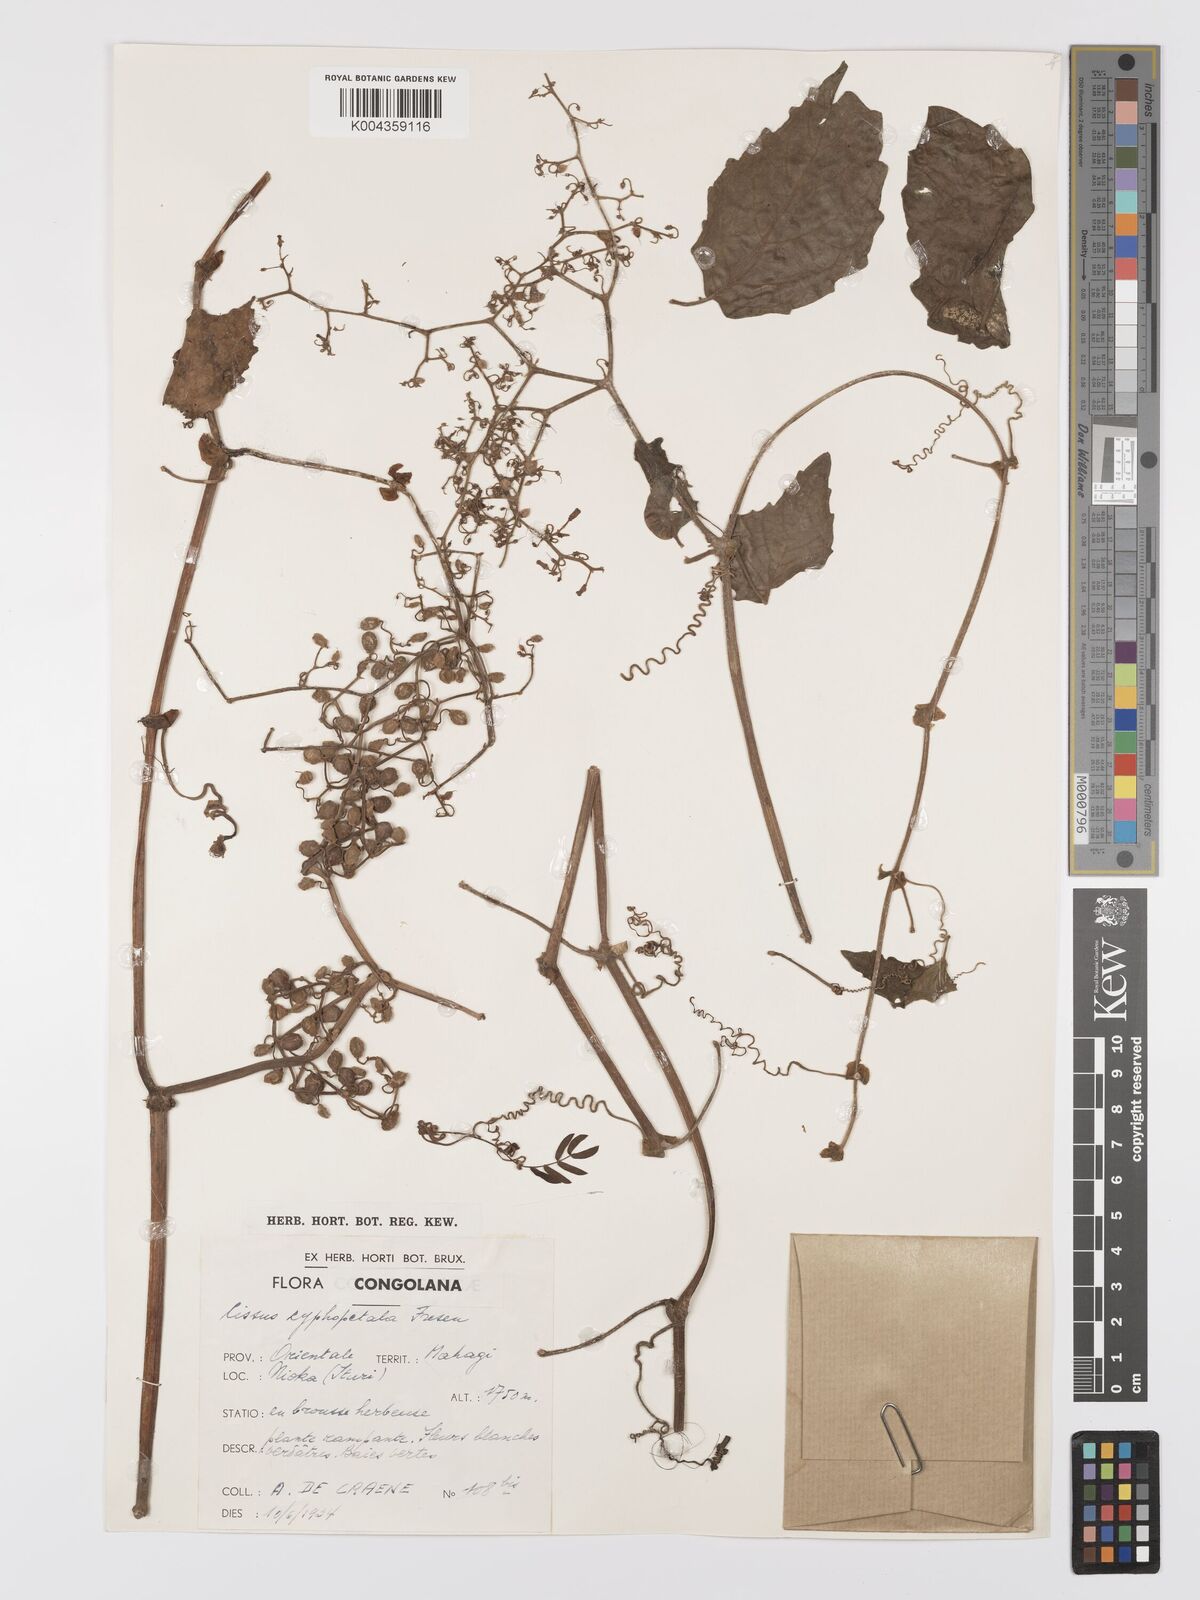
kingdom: Plantae
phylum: Tracheophyta
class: Magnoliopsida
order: Vitales
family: Vitaceae
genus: Cyphostemma
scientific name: Cyphostemma cyphopetalum
